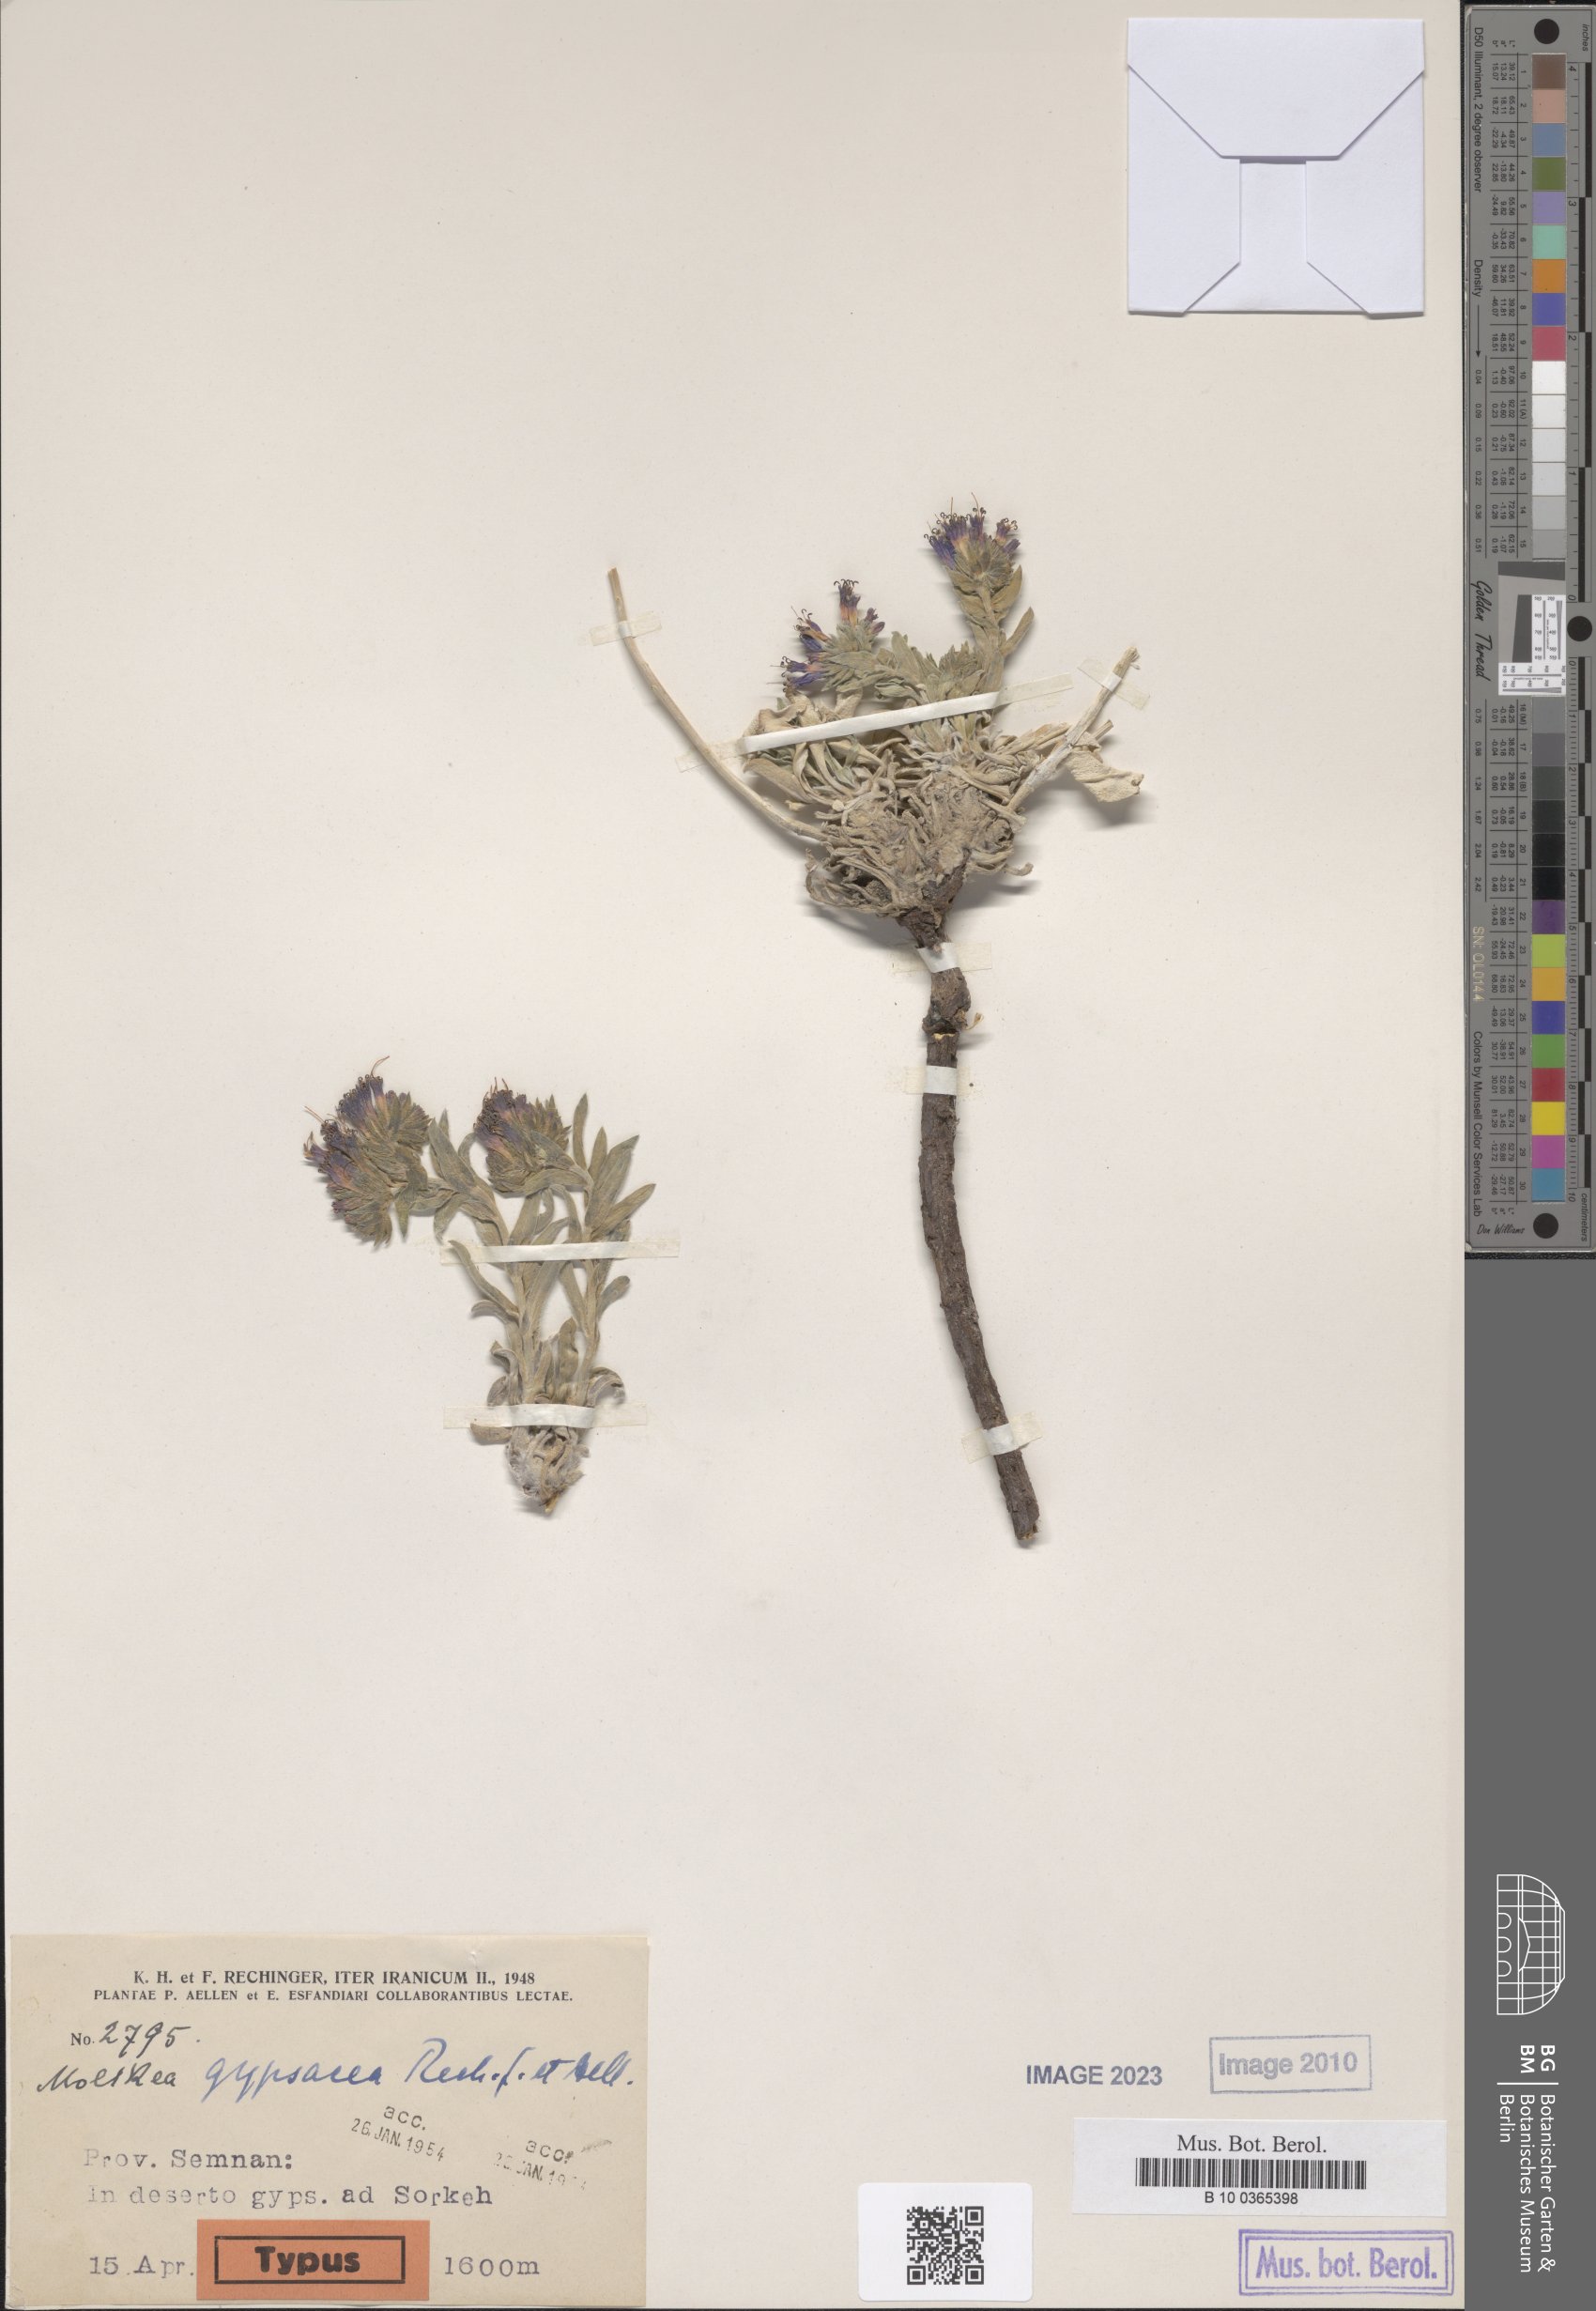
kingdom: Plantae
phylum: Tracheophyta
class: Magnoliopsida
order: Boraginales
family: Boraginaceae
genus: Moltkia
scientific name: Moltkia gypsacea
